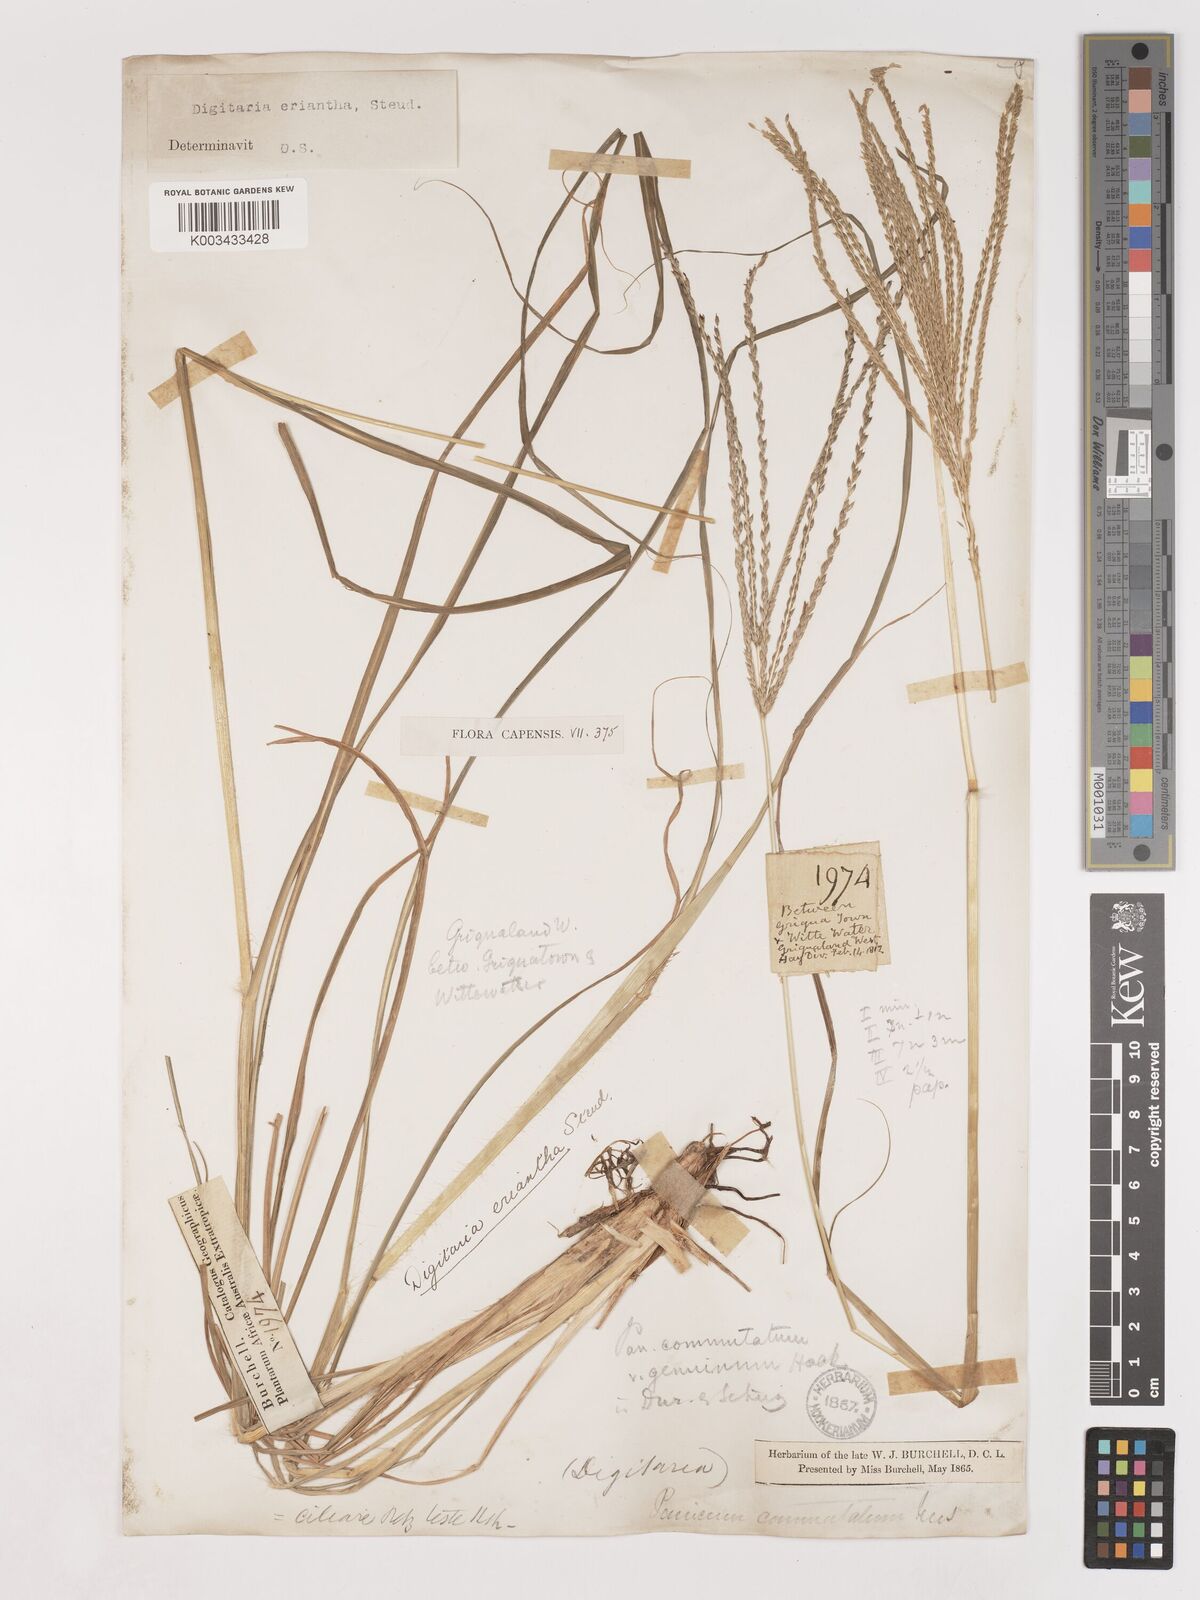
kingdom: Plantae
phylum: Tracheophyta
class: Liliopsida
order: Poales
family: Poaceae
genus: Digitaria
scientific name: Digitaria eriantha
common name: Digitgrass
